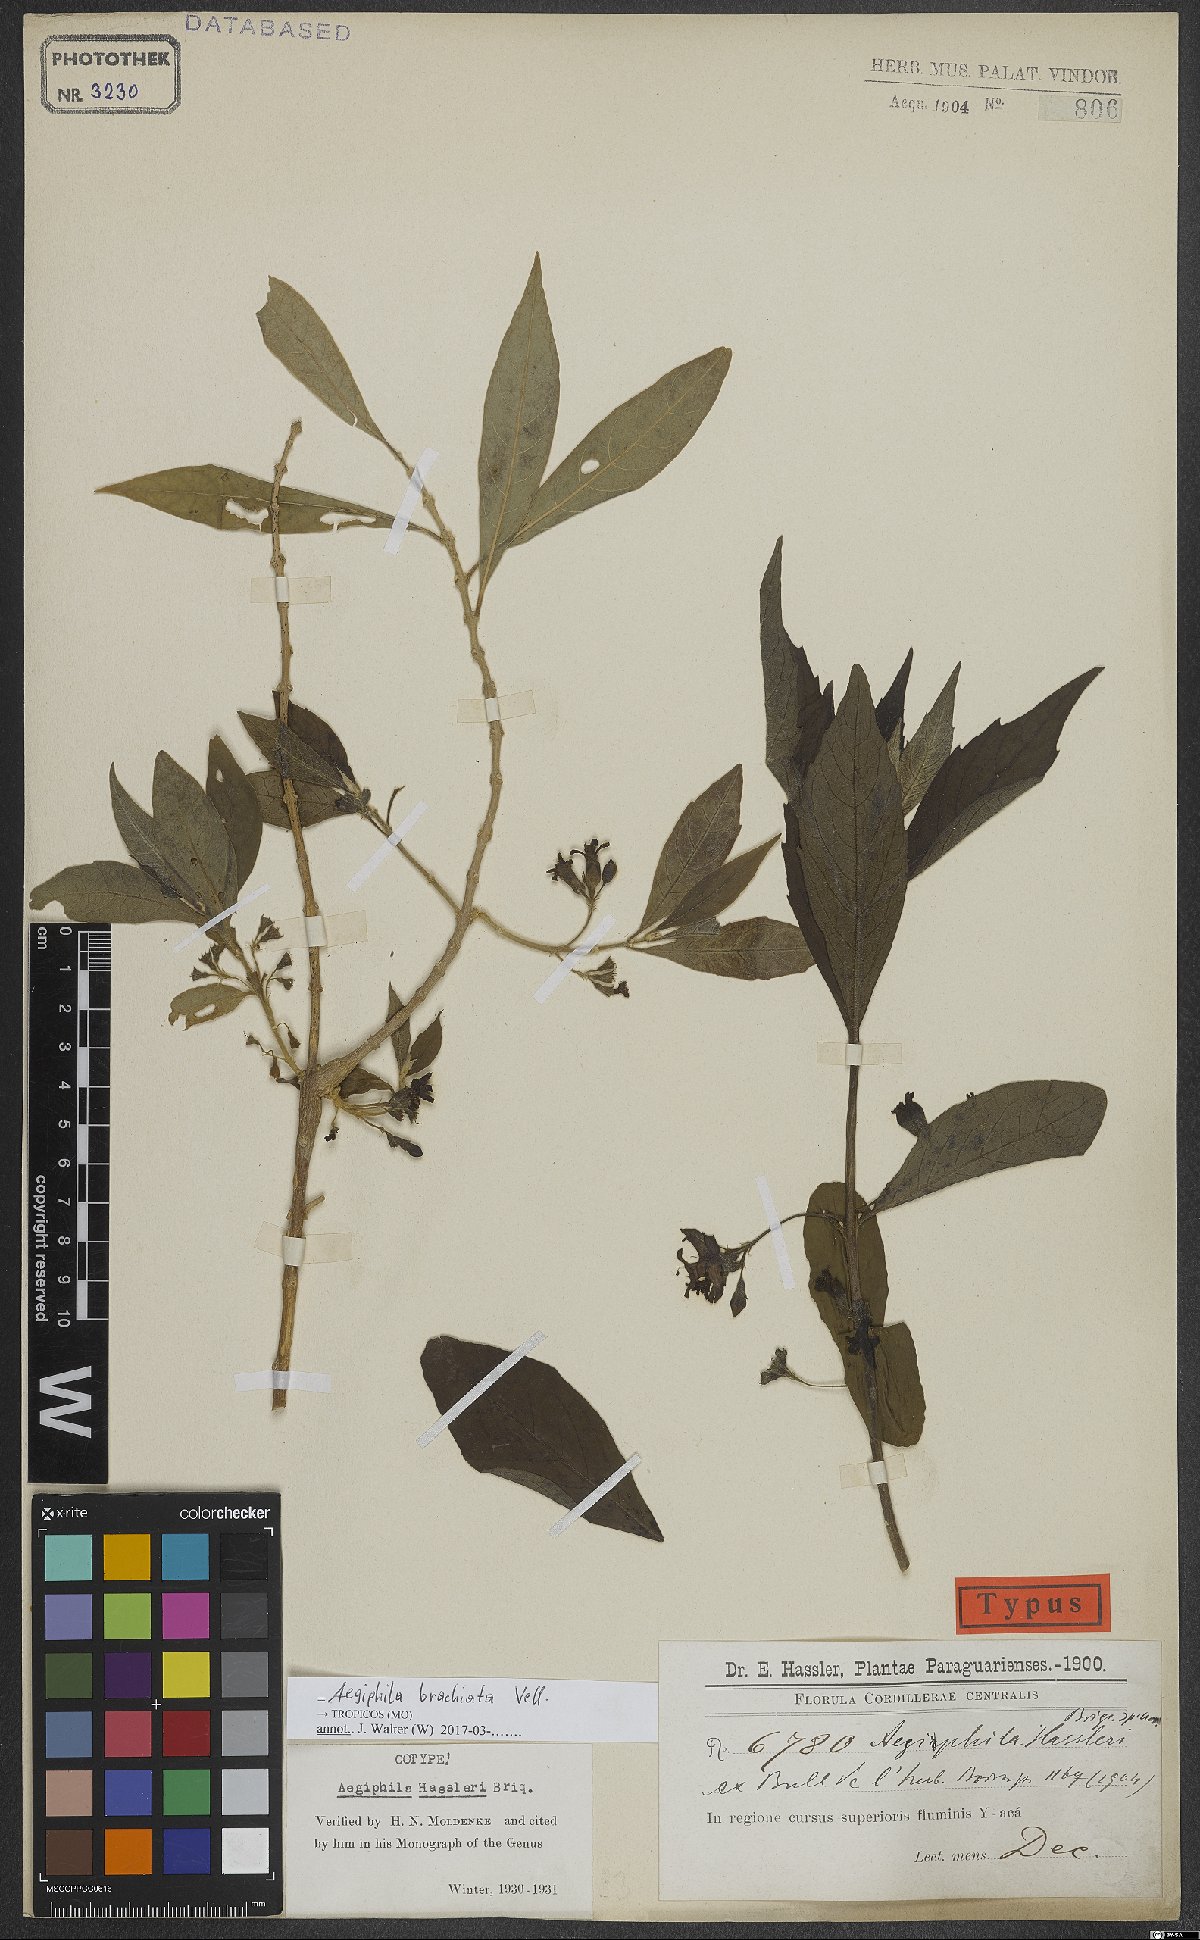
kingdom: Plantae
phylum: Tracheophyta
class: Magnoliopsida
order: Lamiales
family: Lamiaceae
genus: Aegiphila
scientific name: Aegiphila brachiata
